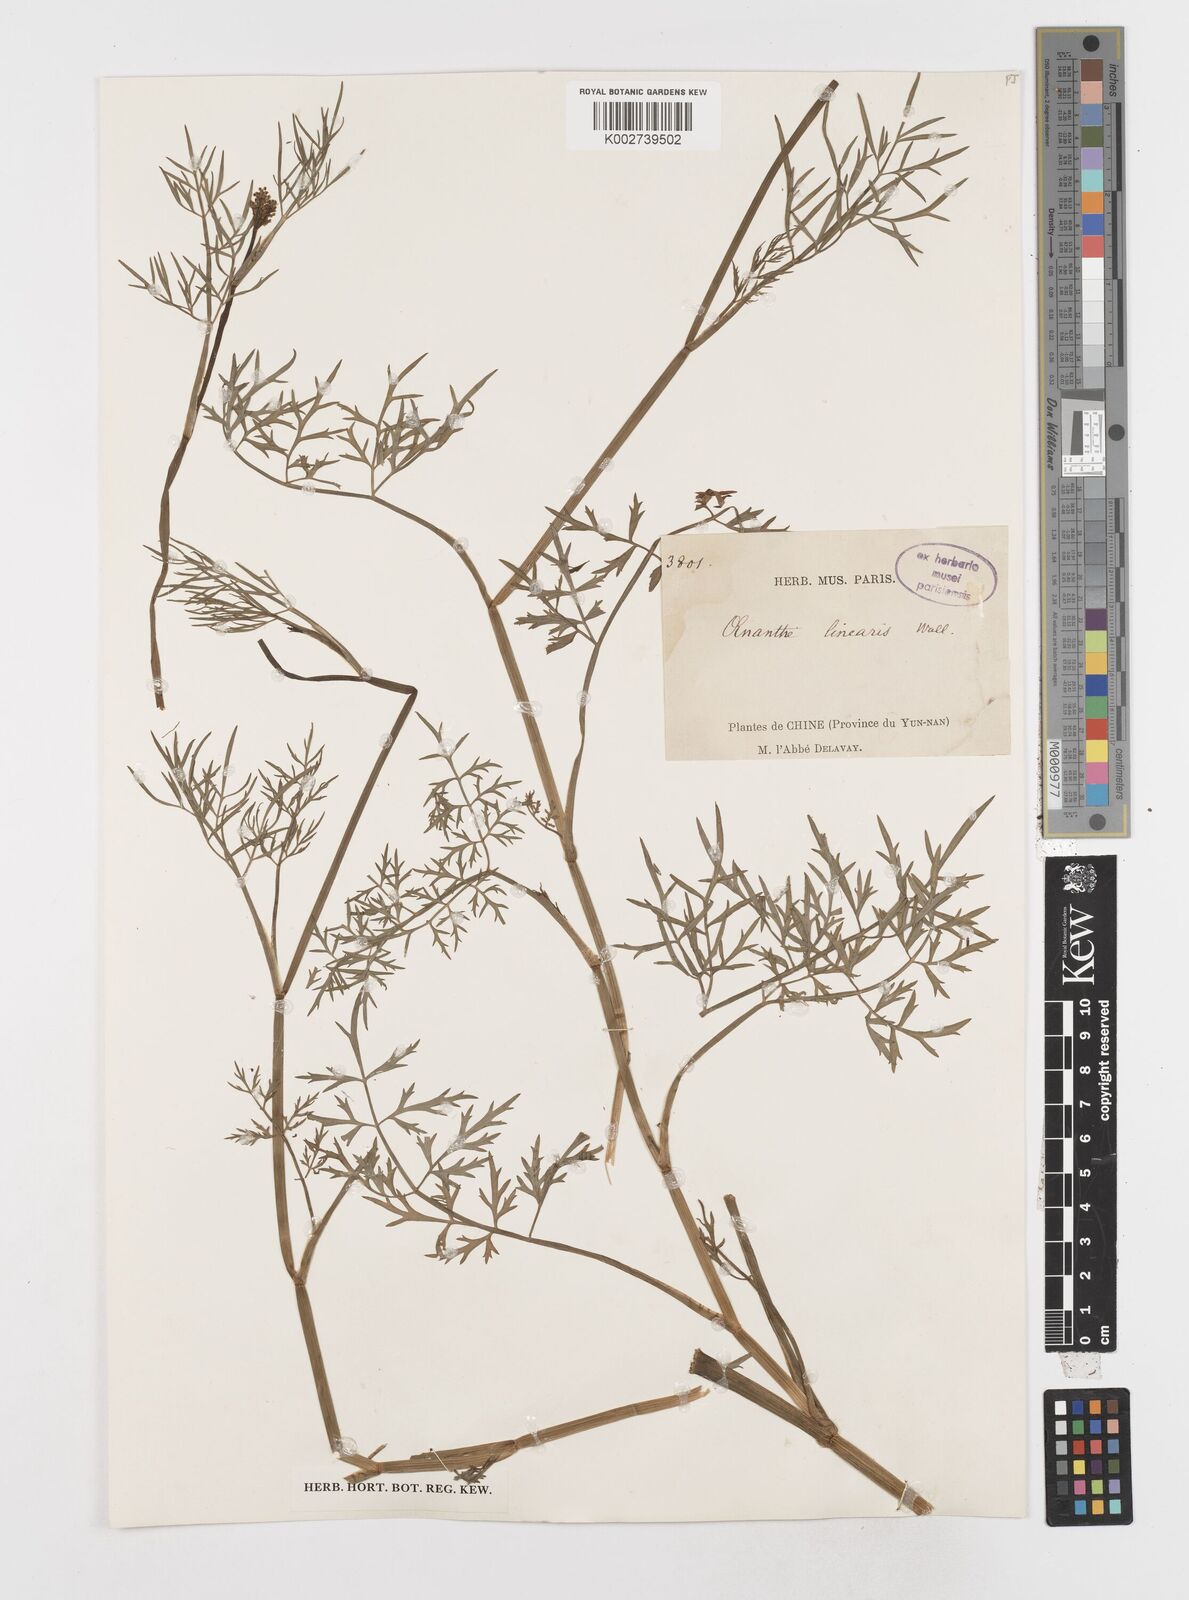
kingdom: Plantae
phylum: Tracheophyta
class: Magnoliopsida
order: Apiales
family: Apiaceae
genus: Oenanthe
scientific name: Oenanthe linearis
